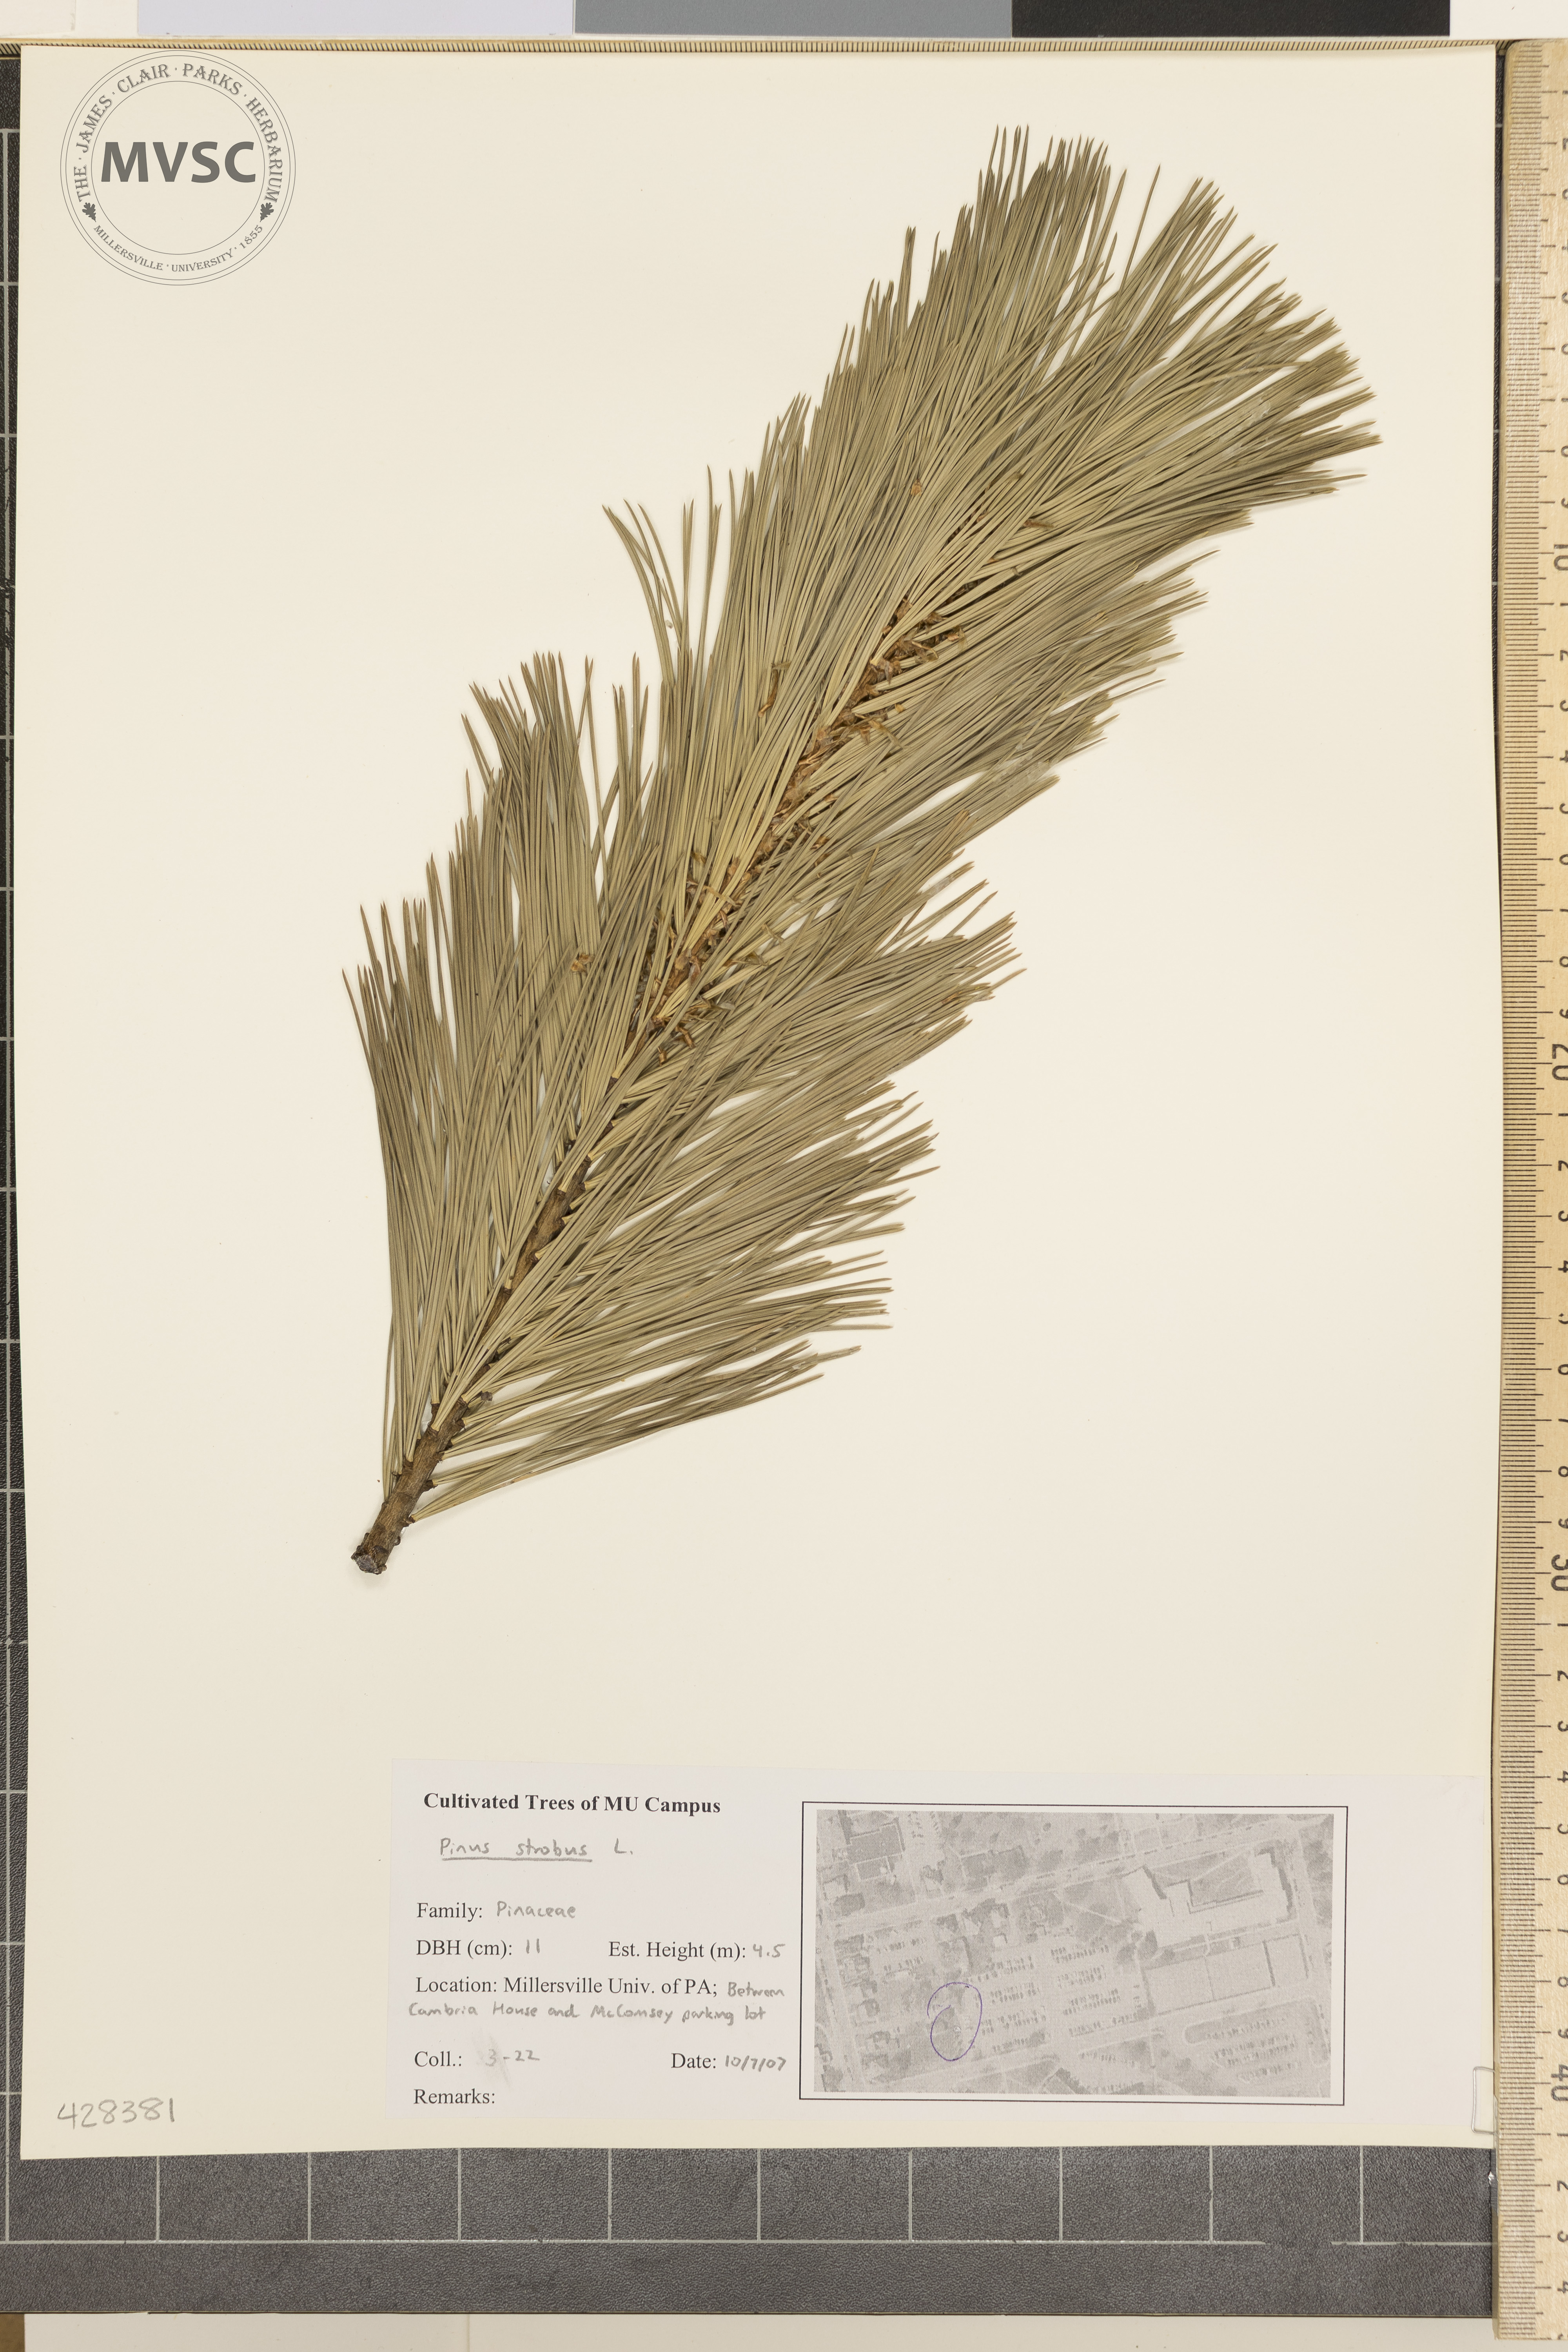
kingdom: Plantae
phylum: Tracheophyta
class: Pinopsida
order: Pinales
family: Pinaceae
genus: Pinus
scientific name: Pinus strobus
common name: Eastern white pine
